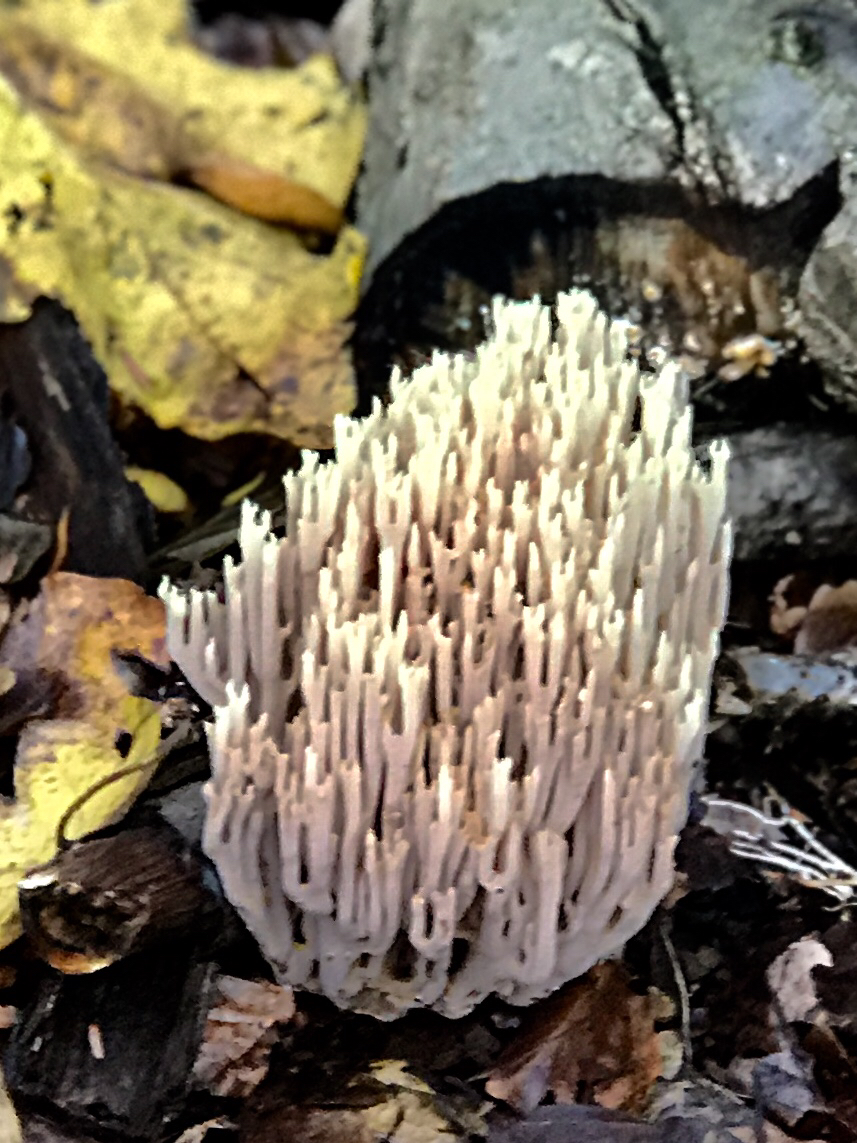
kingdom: Fungi
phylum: Basidiomycota
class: Agaricomycetes
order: Gomphales
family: Gomphaceae
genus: Ramaria
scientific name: Ramaria stricta
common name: rank koralsvamp
